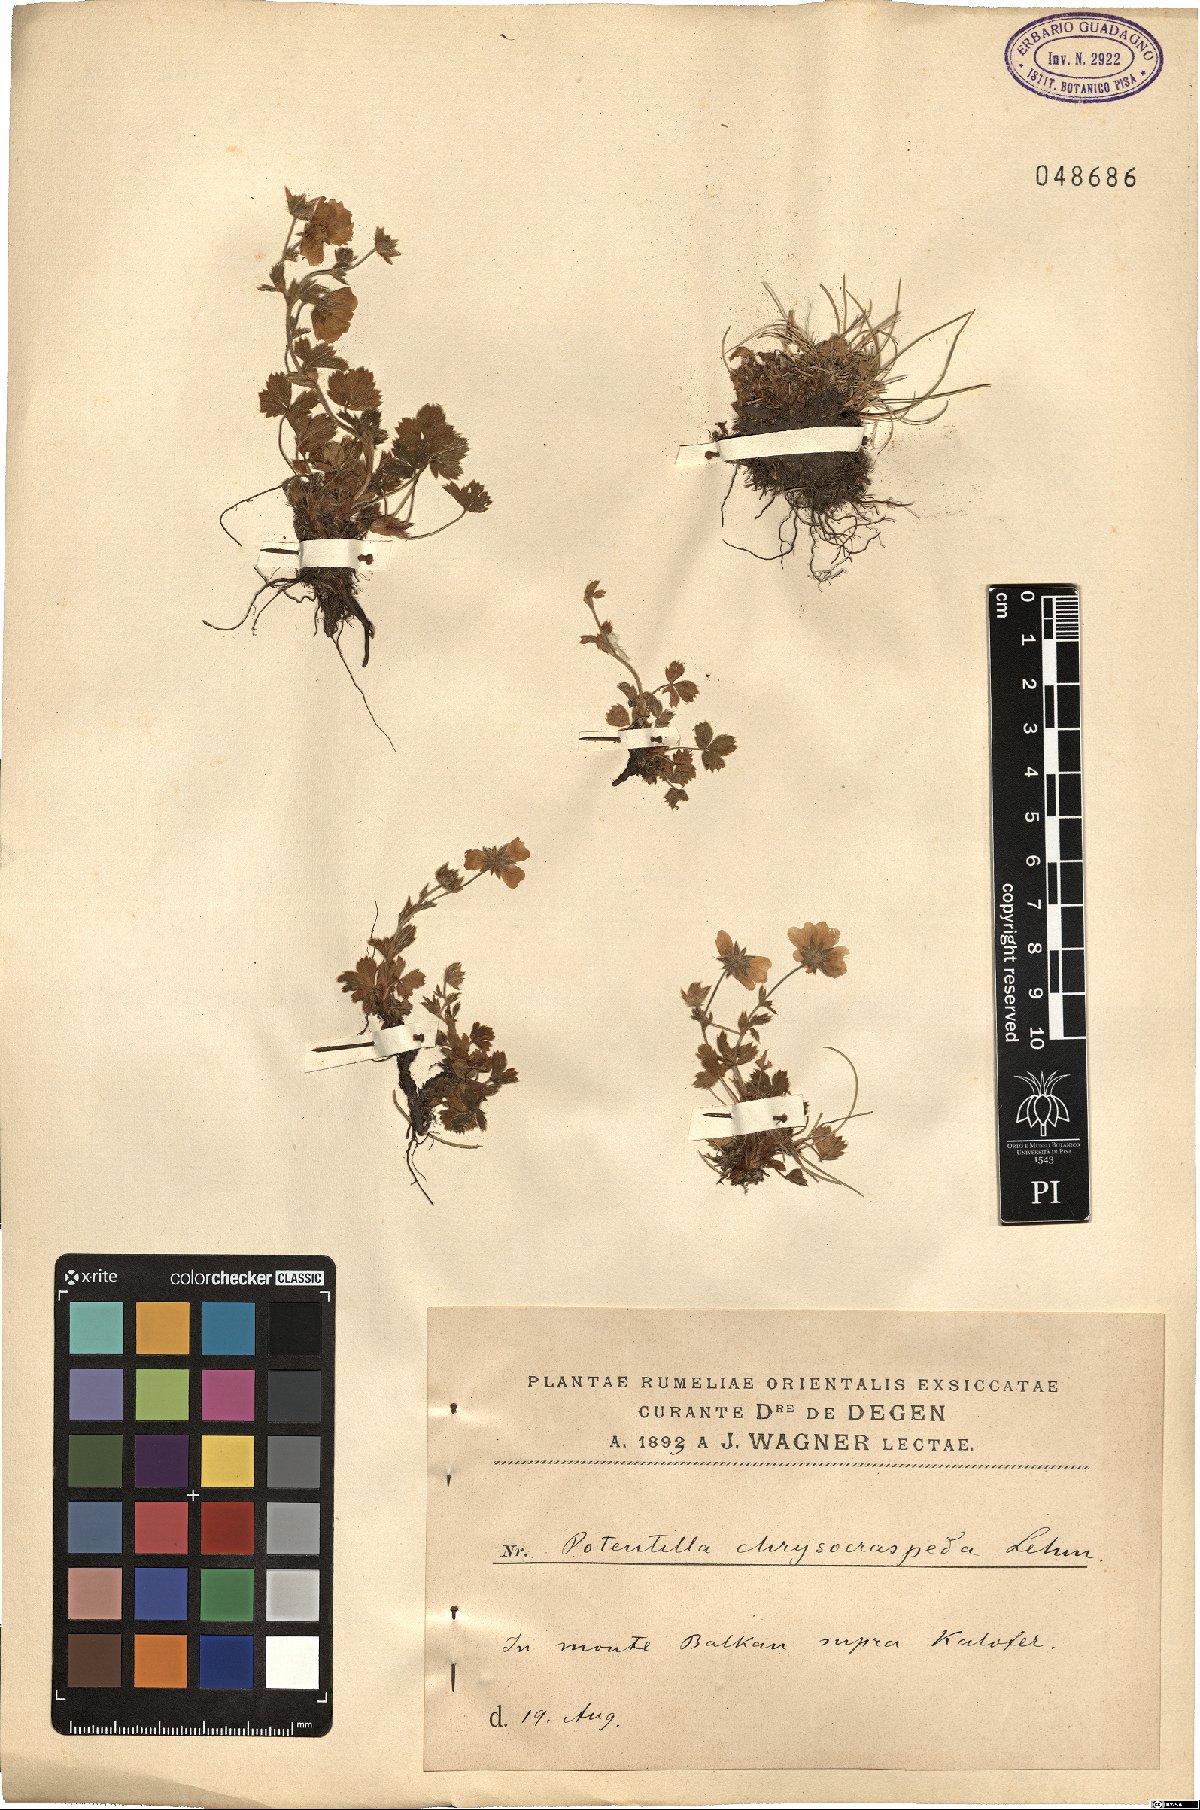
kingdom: Plantae
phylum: Tracheophyta
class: Magnoliopsida
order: Rosales
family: Rosaceae
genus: Potentilla
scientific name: Potentilla aurea
